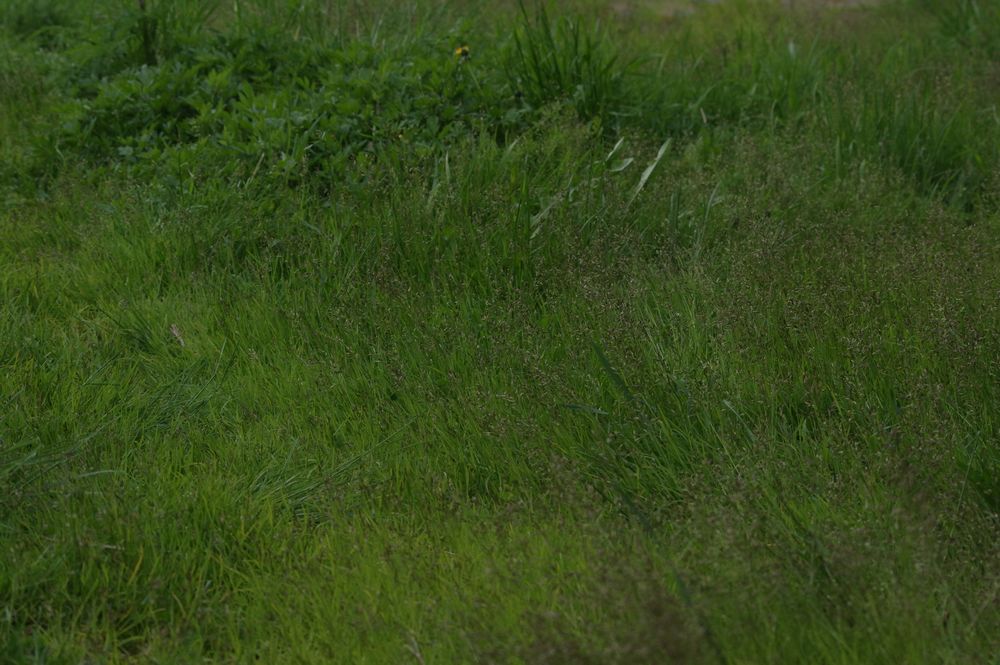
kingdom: Plantae
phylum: Tracheophyta
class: Liliopsida
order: Poales
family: Poaceae
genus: Poa
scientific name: Poa supina
